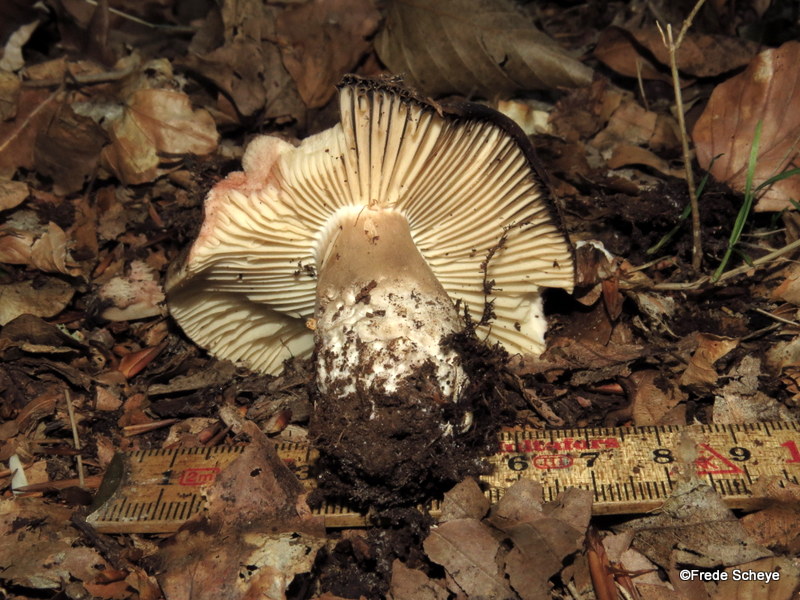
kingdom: Fungi
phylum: Basidiomycota
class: Agaricomycetes
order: Russulales
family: Russulaceae
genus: Russula
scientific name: Russula adusta
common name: sværtende skørhat
